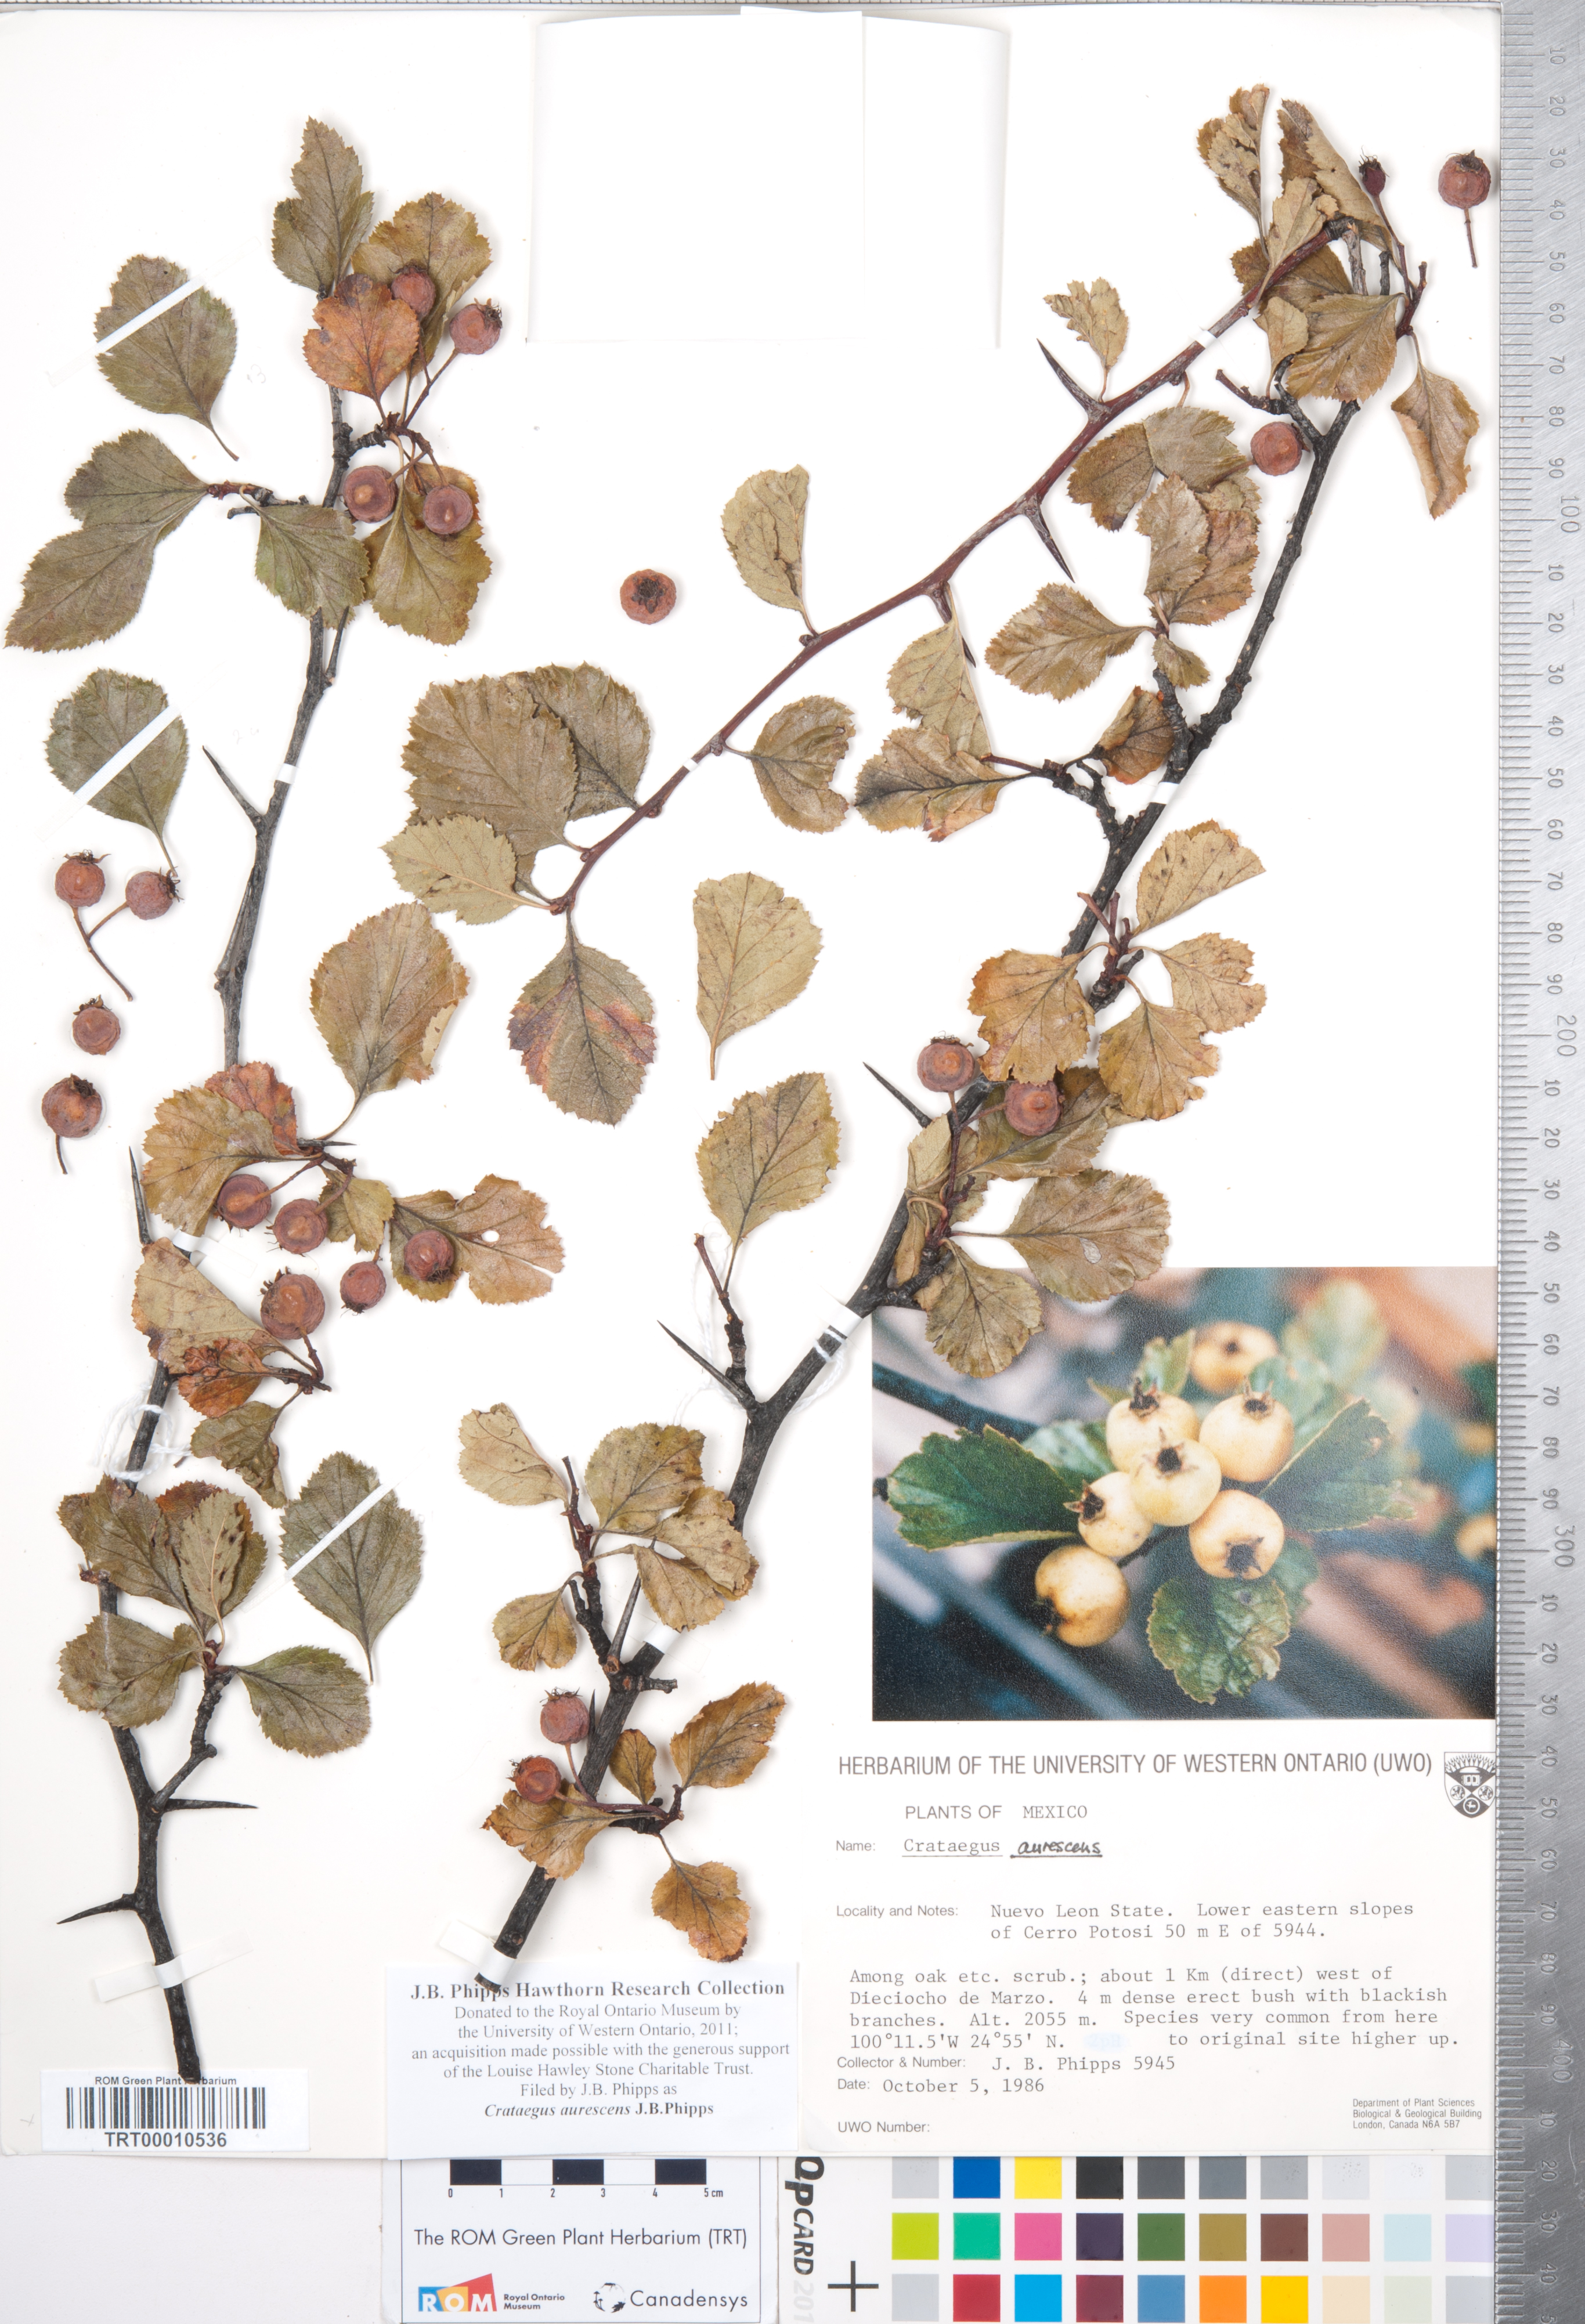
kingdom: Plantae
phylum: Tracheophyta
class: Magnoliopsida
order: Rosales
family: Rosaceae
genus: Crataegus
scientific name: Crataegus aurescens
